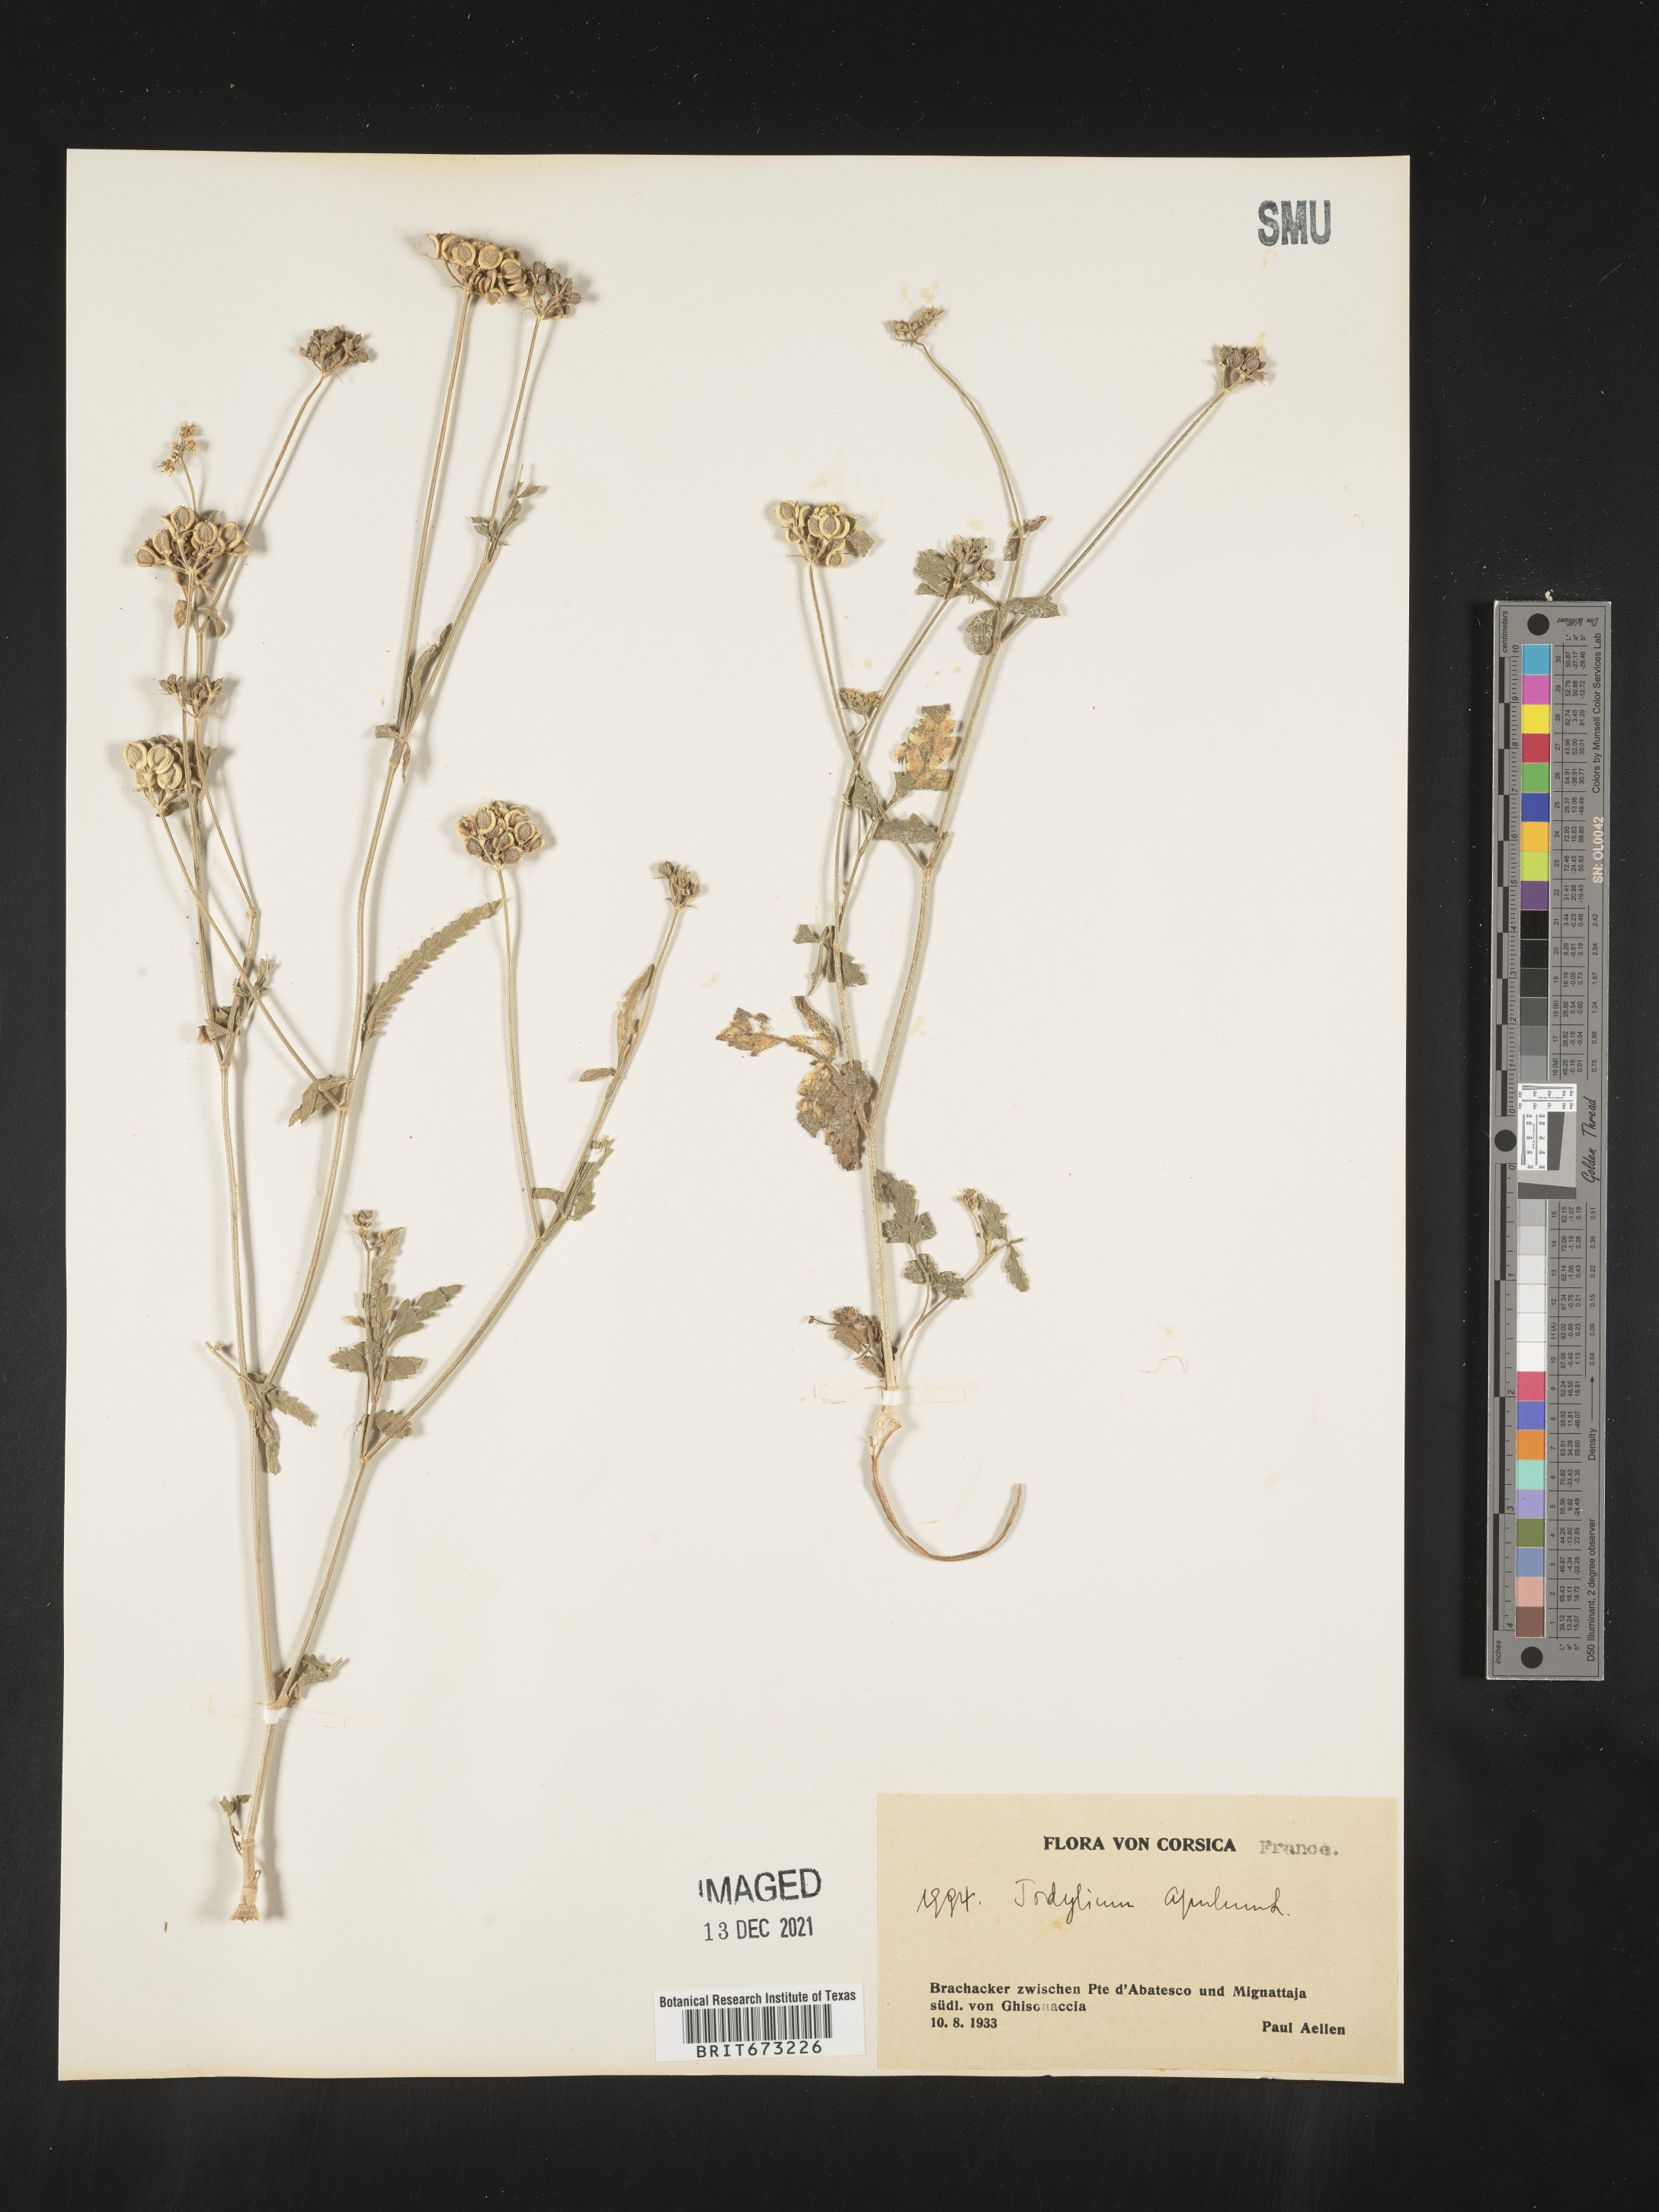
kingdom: Plantae
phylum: Tracheophyta
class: Magnoliopsida
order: Apiales
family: Apiaceae
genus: Tordylium
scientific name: Tordylium
